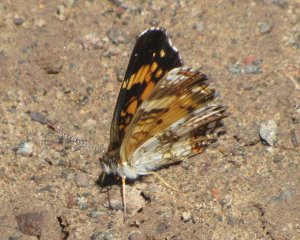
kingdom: Animalia
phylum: Arthropoda
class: Insecta
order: Lepidoptera
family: Nymphalidae
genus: Chlosyne
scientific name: Chlosyne nycteis
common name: Silvery Checkerspot
